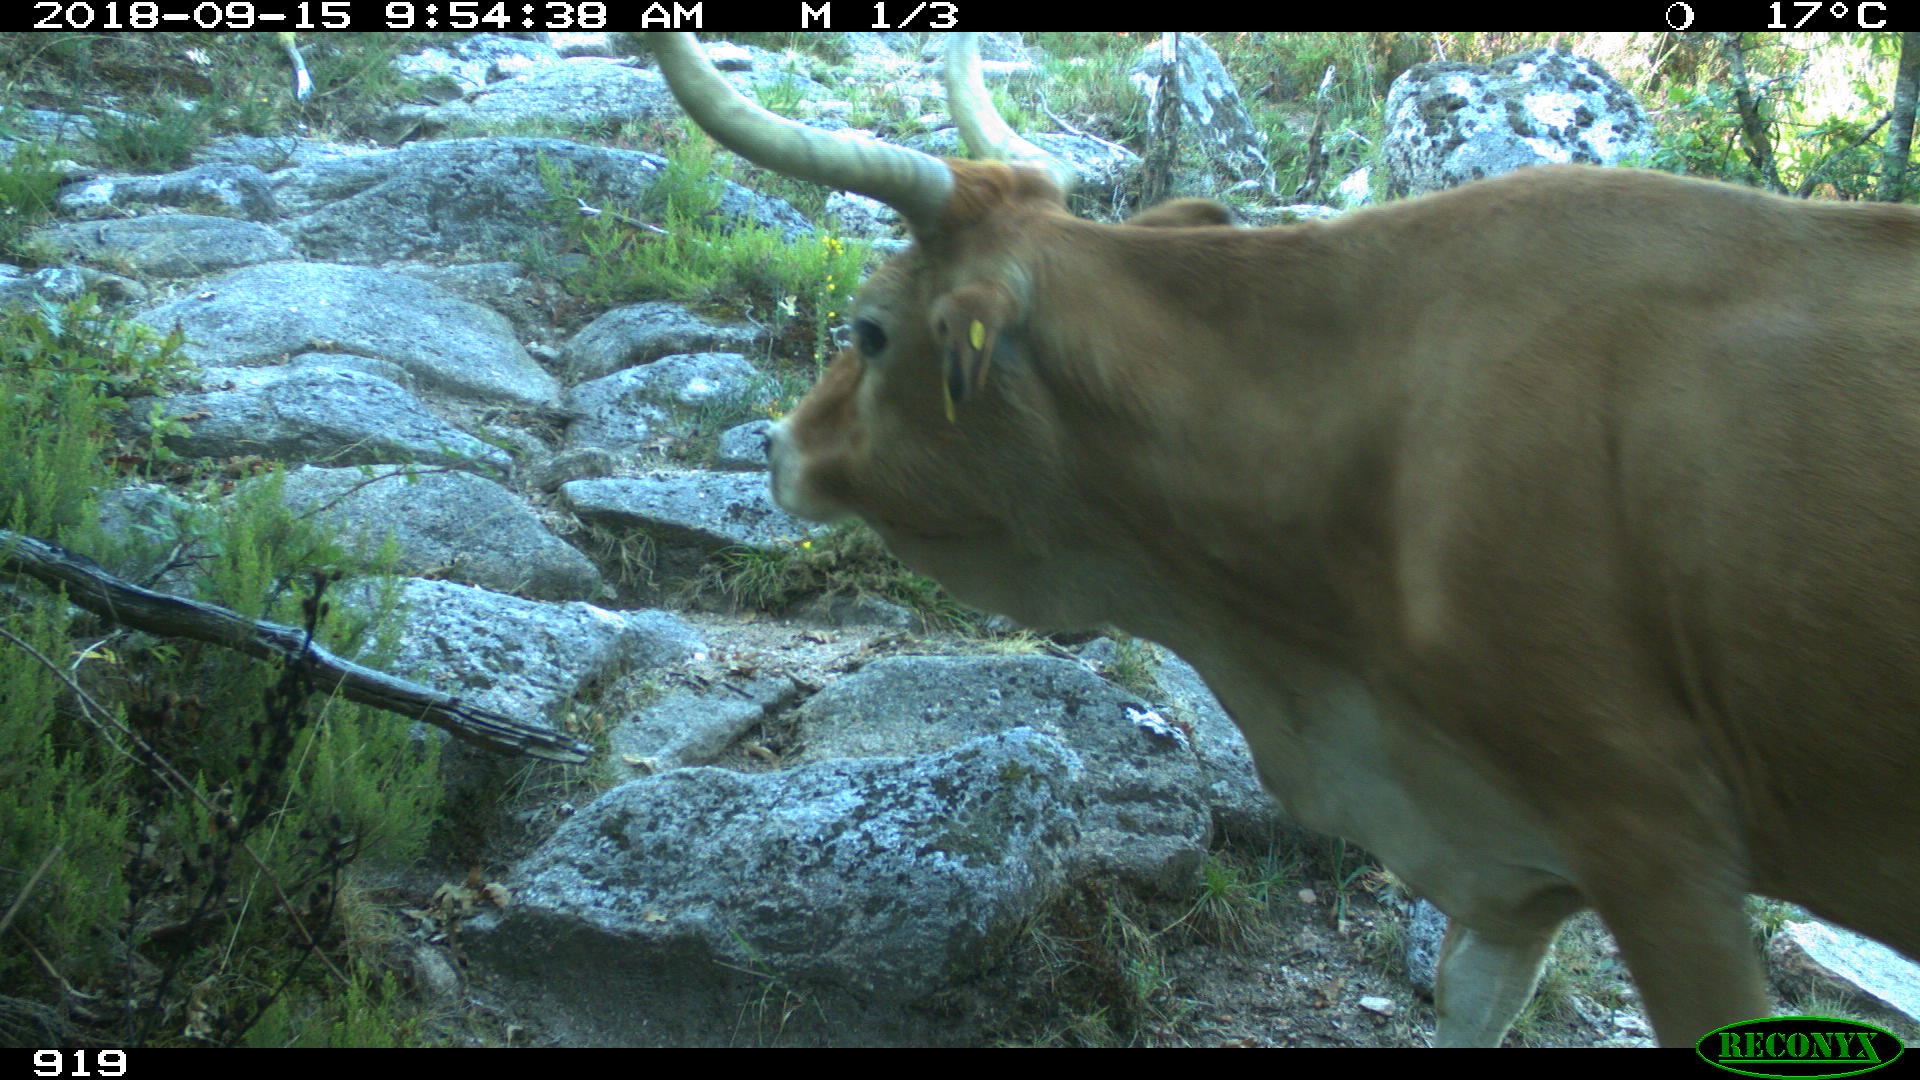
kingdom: Animalia
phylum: Chordata
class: Mammalia
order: Artiodactyla
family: Bovidae
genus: Bos
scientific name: Bos taurus
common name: Domesticated cattle
